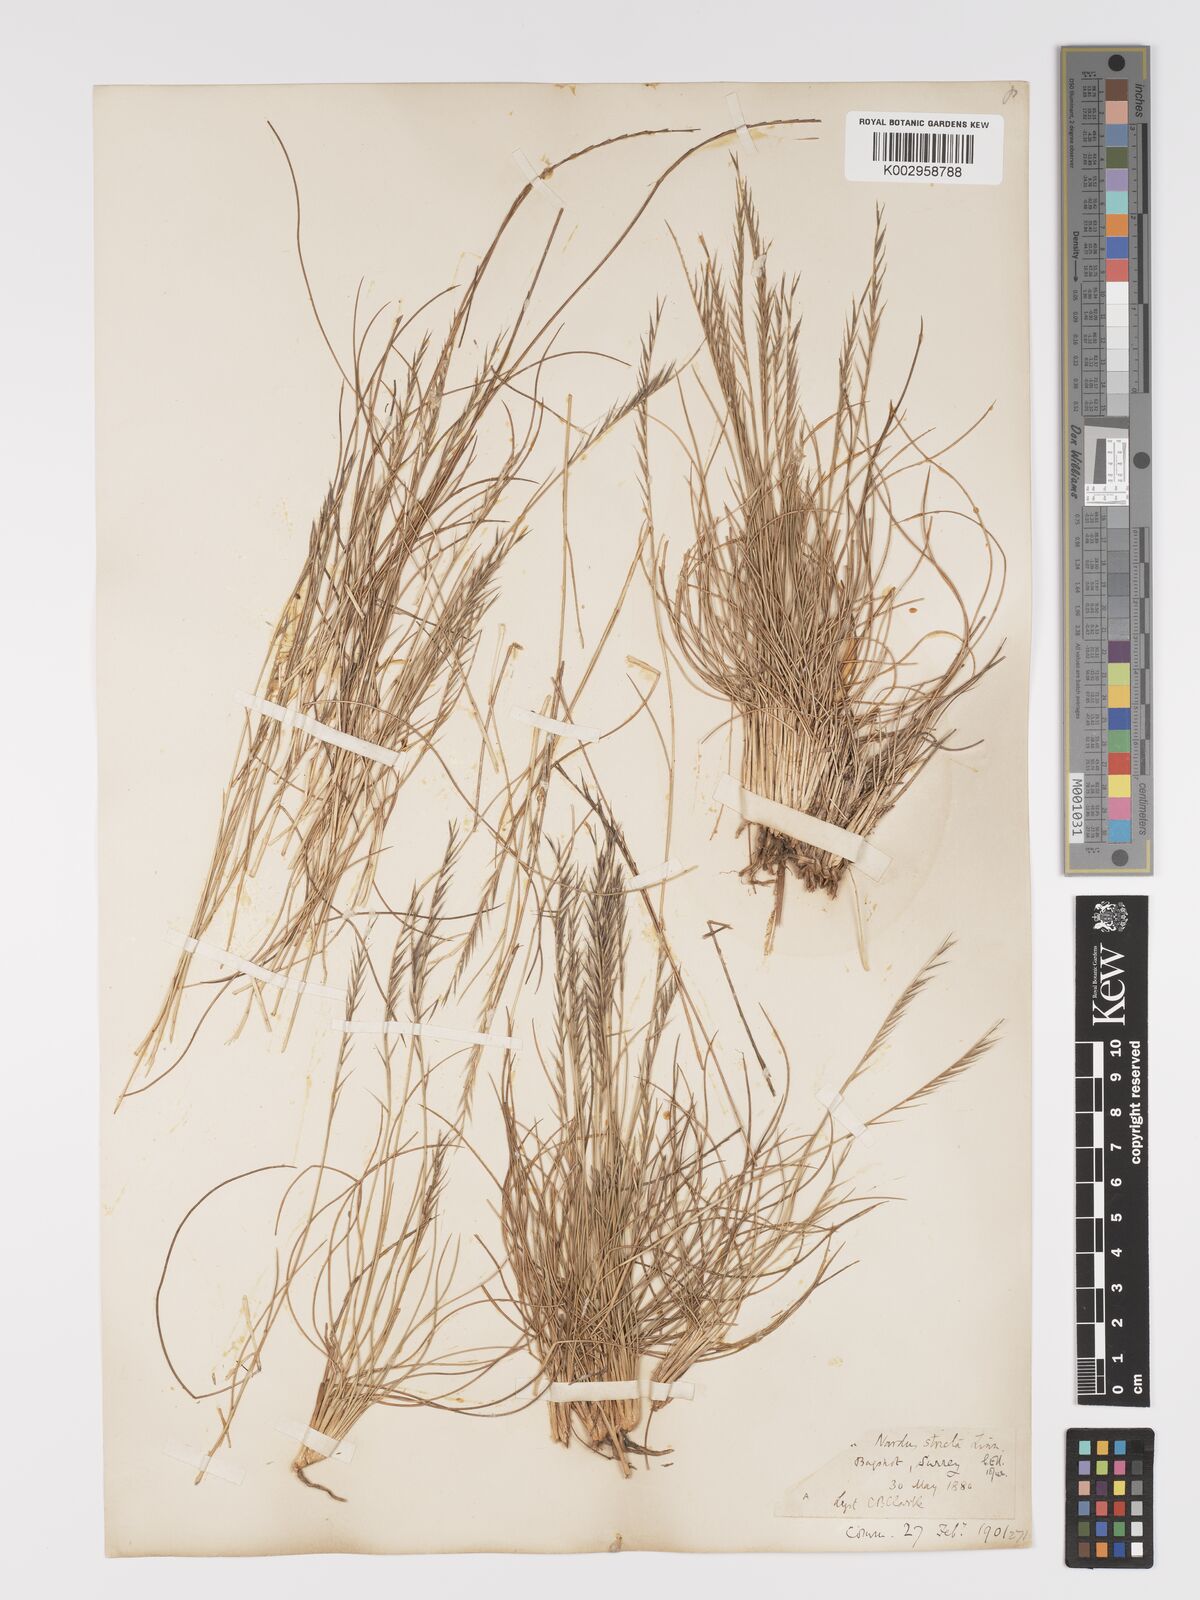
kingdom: Plantae
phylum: Tracheophyta
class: Liliopsida
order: Poales
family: Poaceae
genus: Nardus
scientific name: Nardus stricta
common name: Mat-grass
